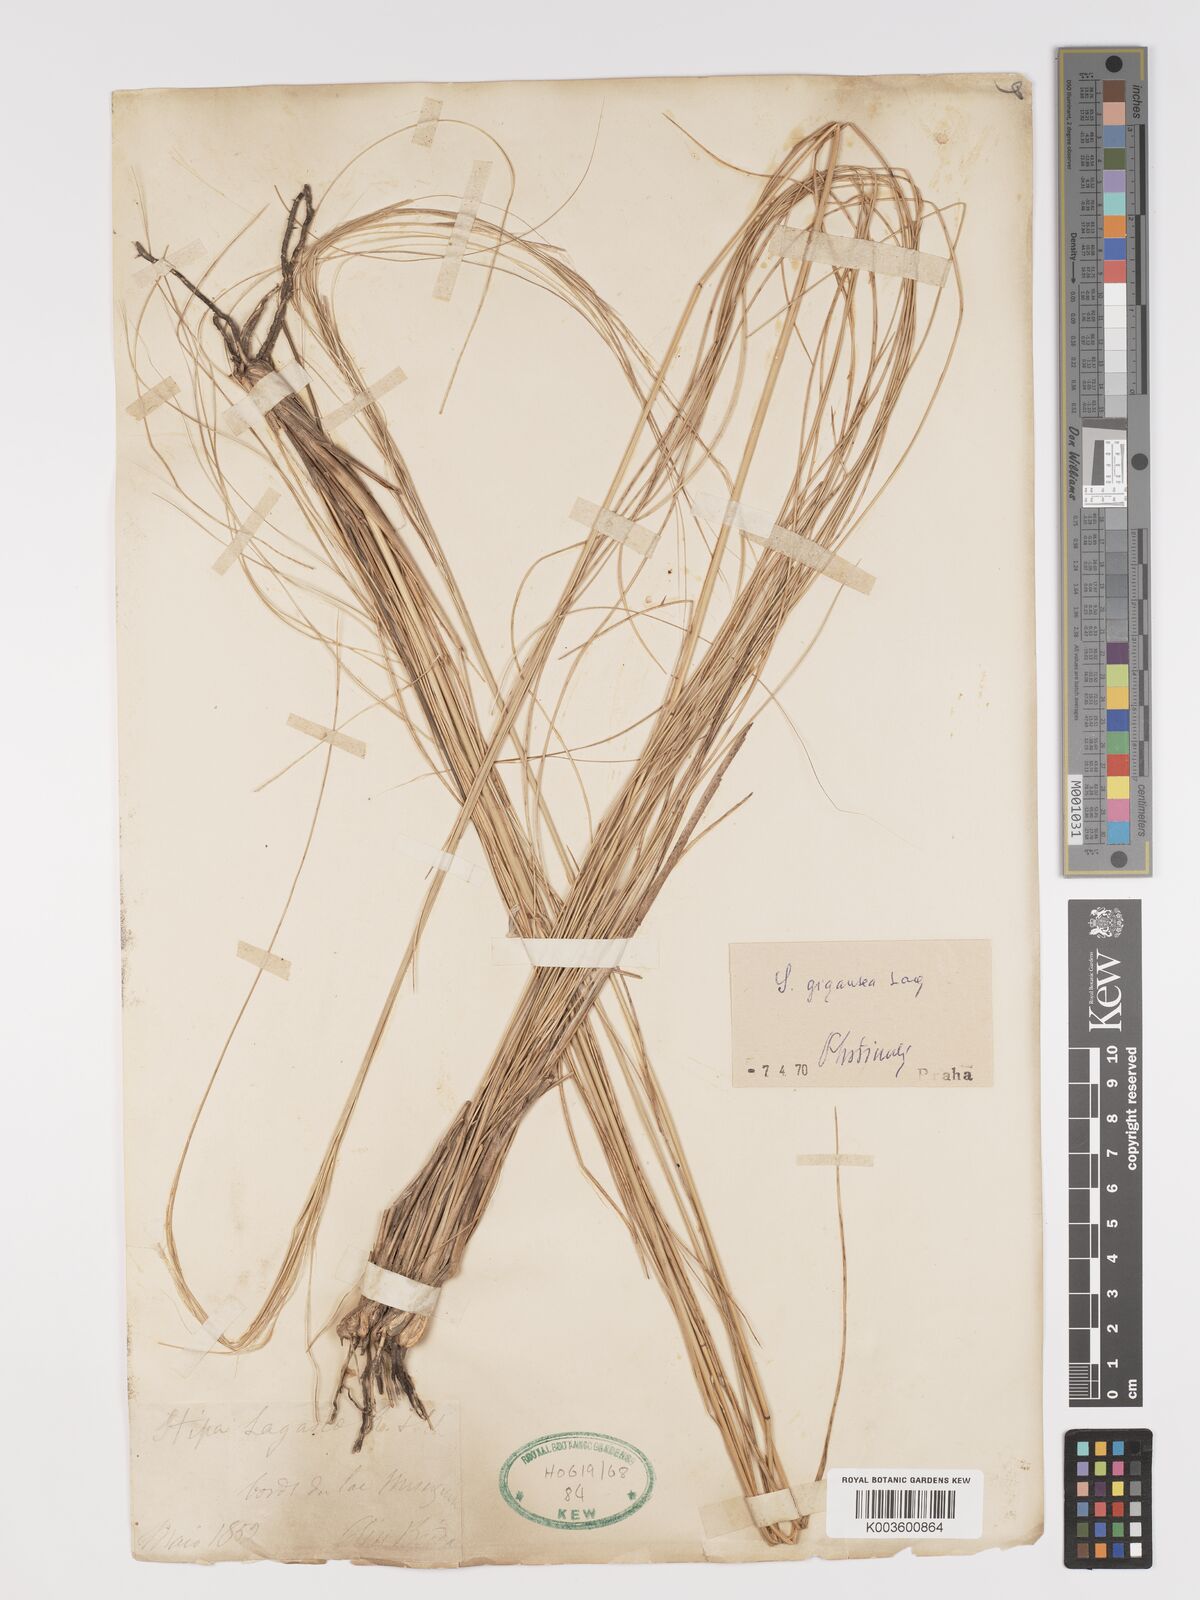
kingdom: Plantae
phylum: Tracheophyta
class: Liliopsida
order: Poales
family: Poaceae
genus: Stipa
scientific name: Stipa lagascae
